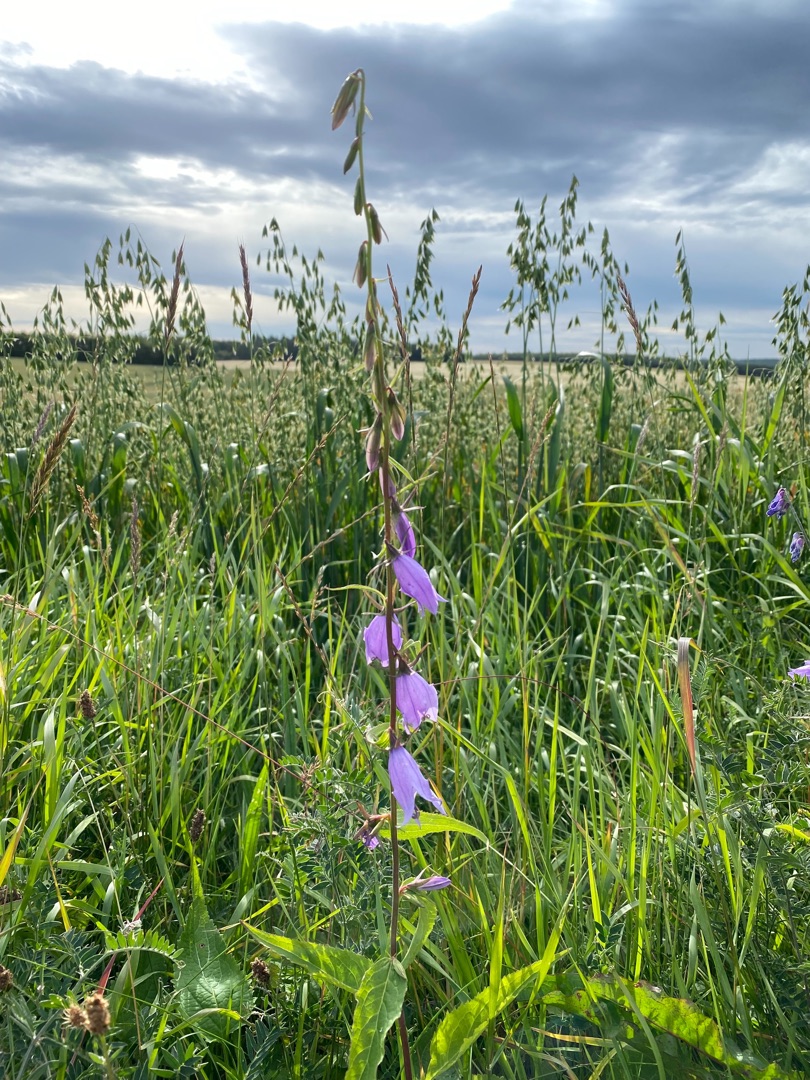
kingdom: Plantae
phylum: Tracheophyta
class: Magnoliopsida
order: Asterales
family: Campanulaceae
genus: Campanula
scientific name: Campanula rapunculoides
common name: Ensidig klokke
